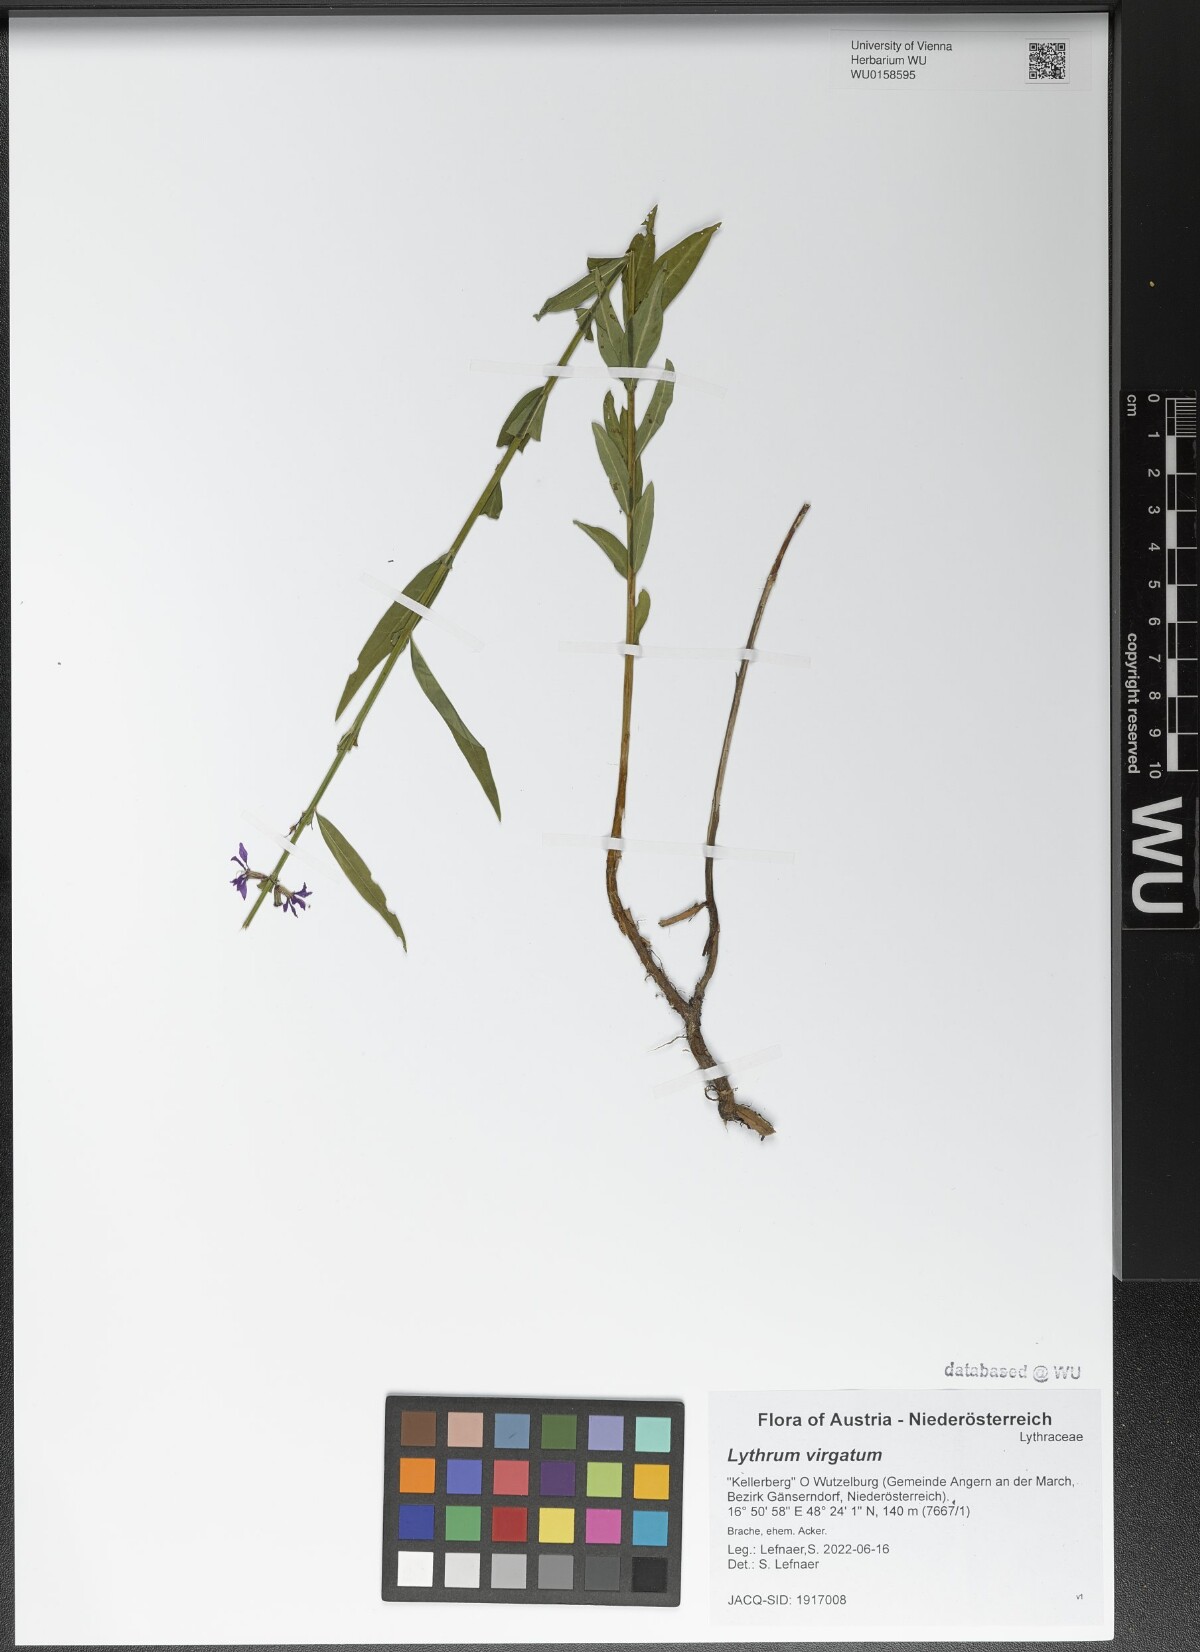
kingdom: Plantae
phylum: Tracheophyta
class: Magnoliopsida
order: Myrtales
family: Lythraceae
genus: Lythrum
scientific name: Lythrum virgatum
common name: European wand loosestrife
